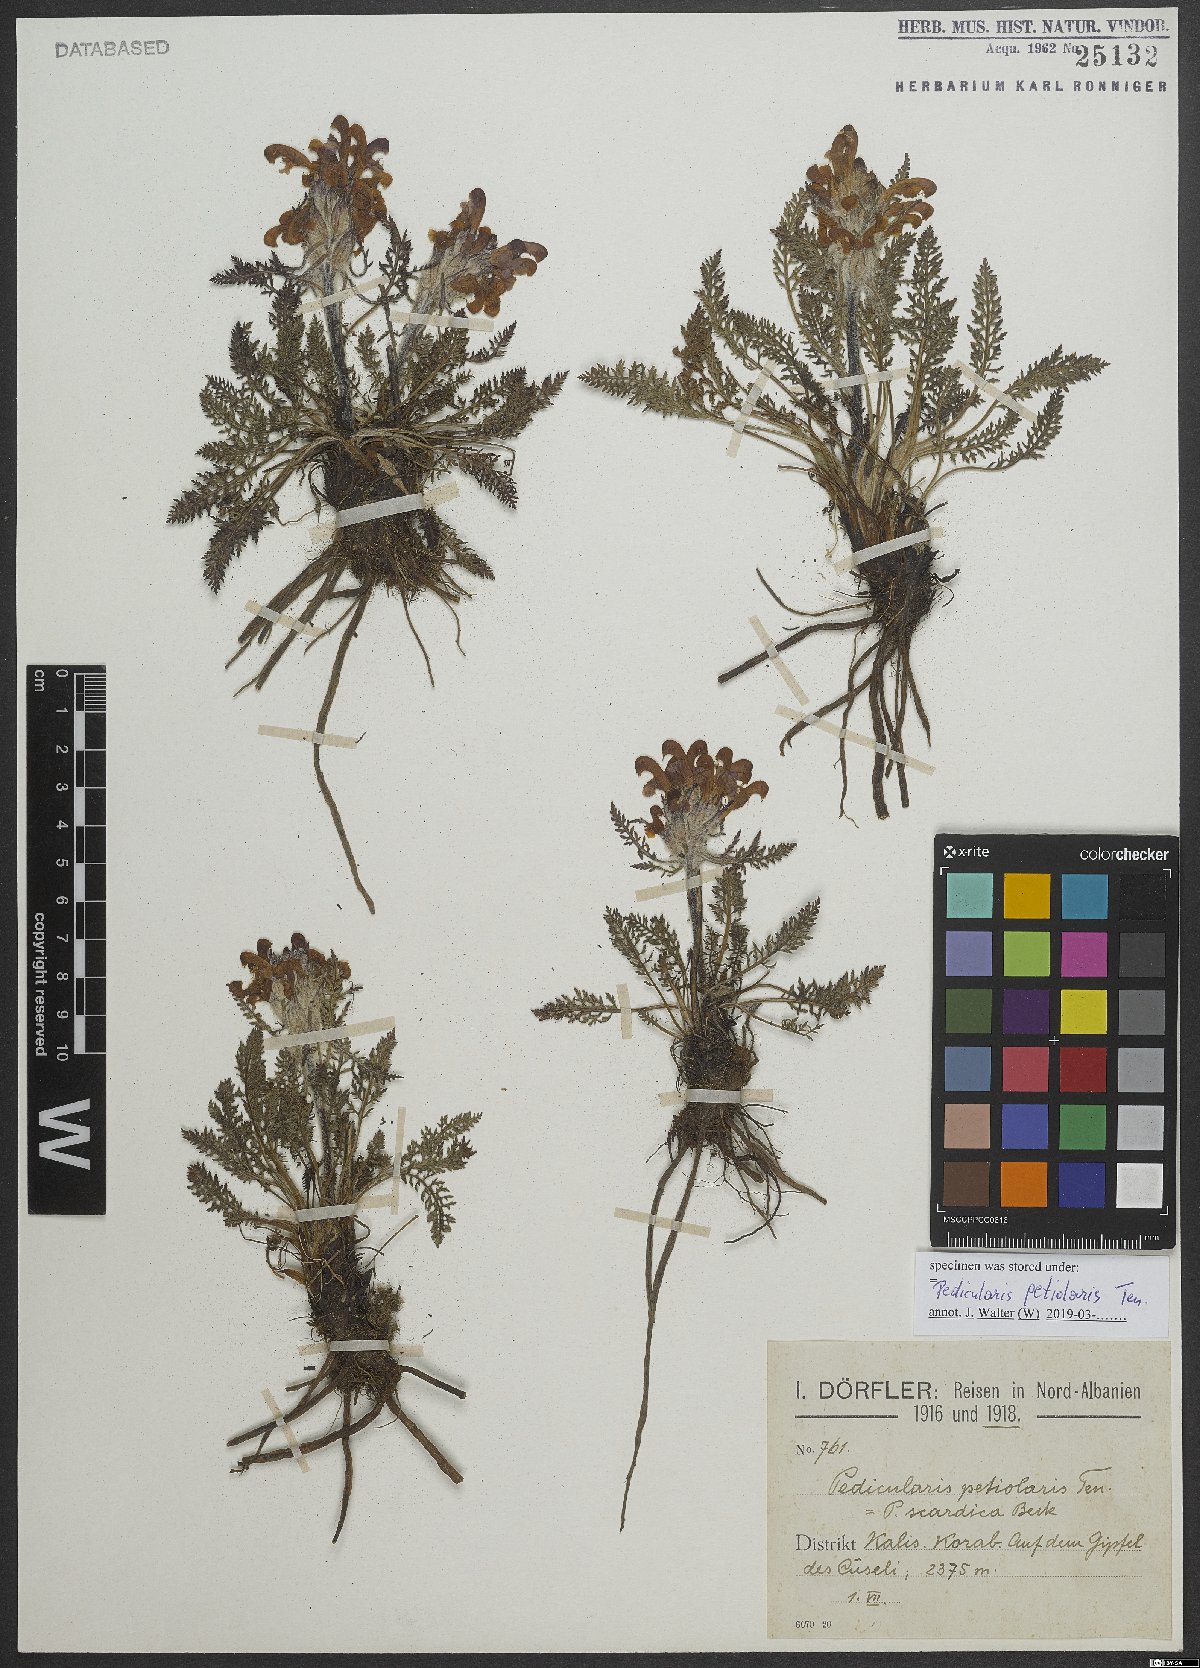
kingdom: Plantae
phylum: Tracheophyta
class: Magnoliopsida
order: Lamiales
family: Orobanchaceae
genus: Pedicularis
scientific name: Pedicularis petiolaris
